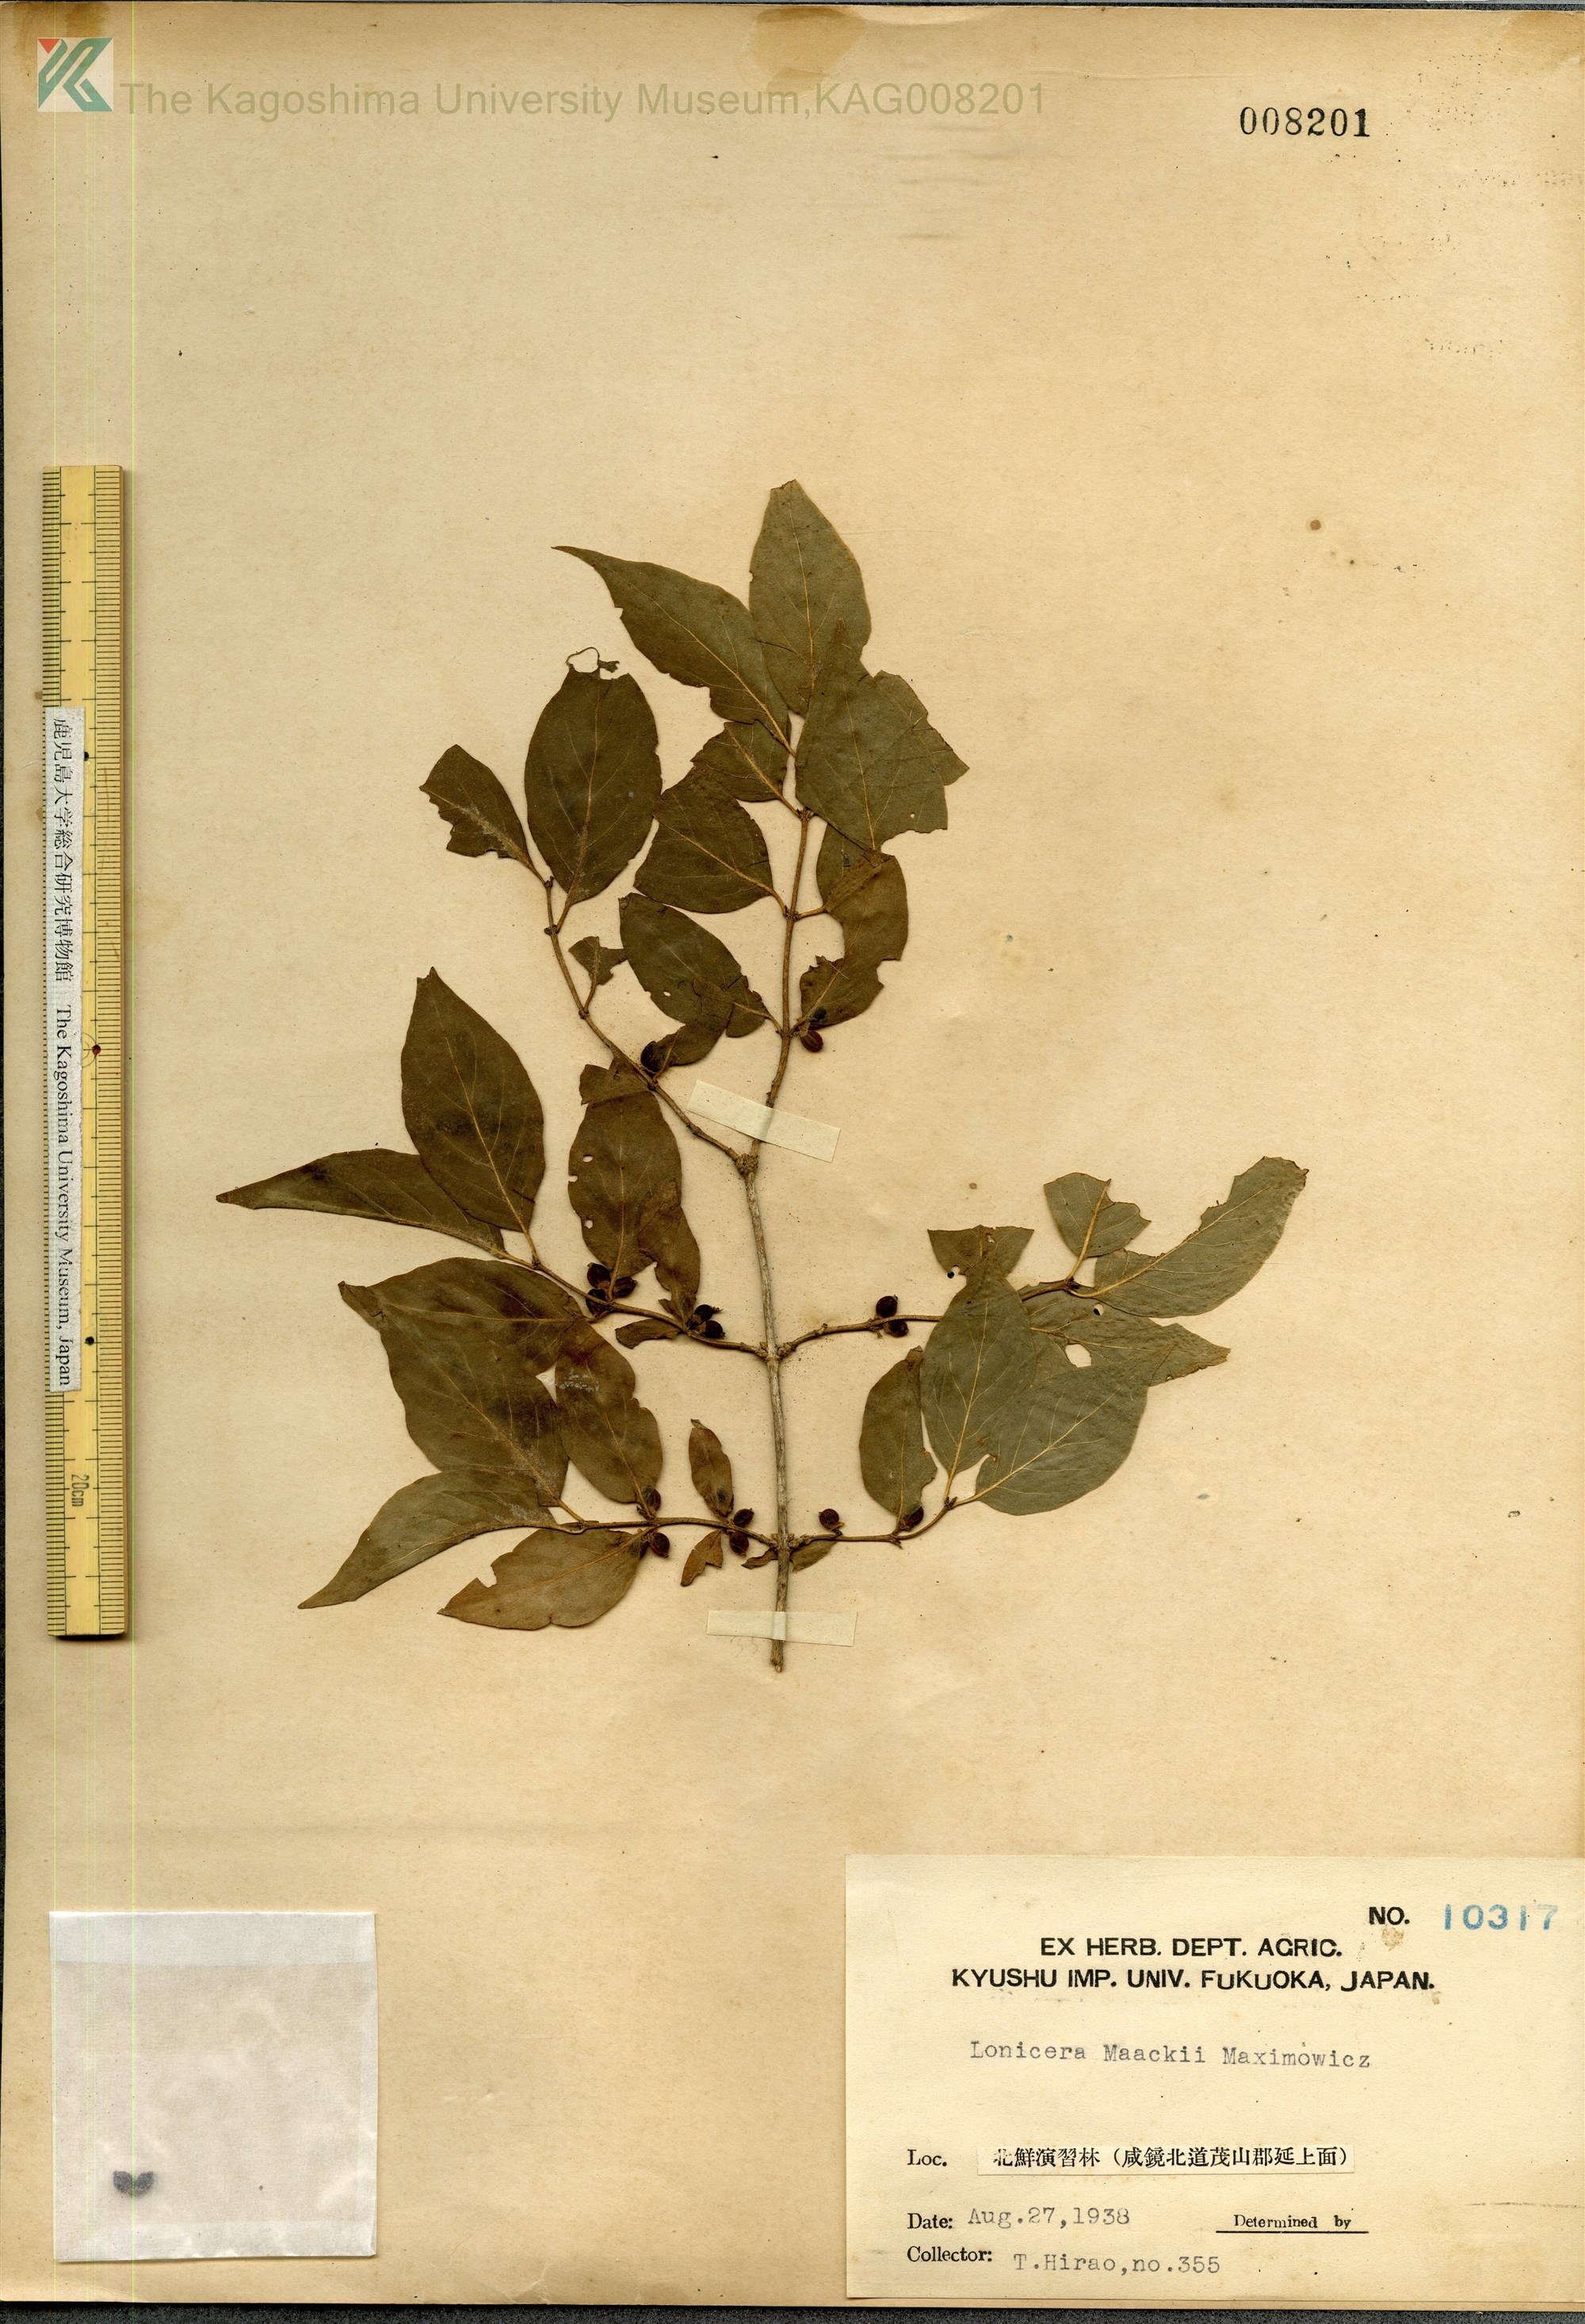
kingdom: Plantae
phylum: Tracheophyta
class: Magnoliopsida
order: Dipsacales
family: Caprifoliaceae
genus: Lonicera
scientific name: Lonicera maackii
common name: Amur honeysuckle
